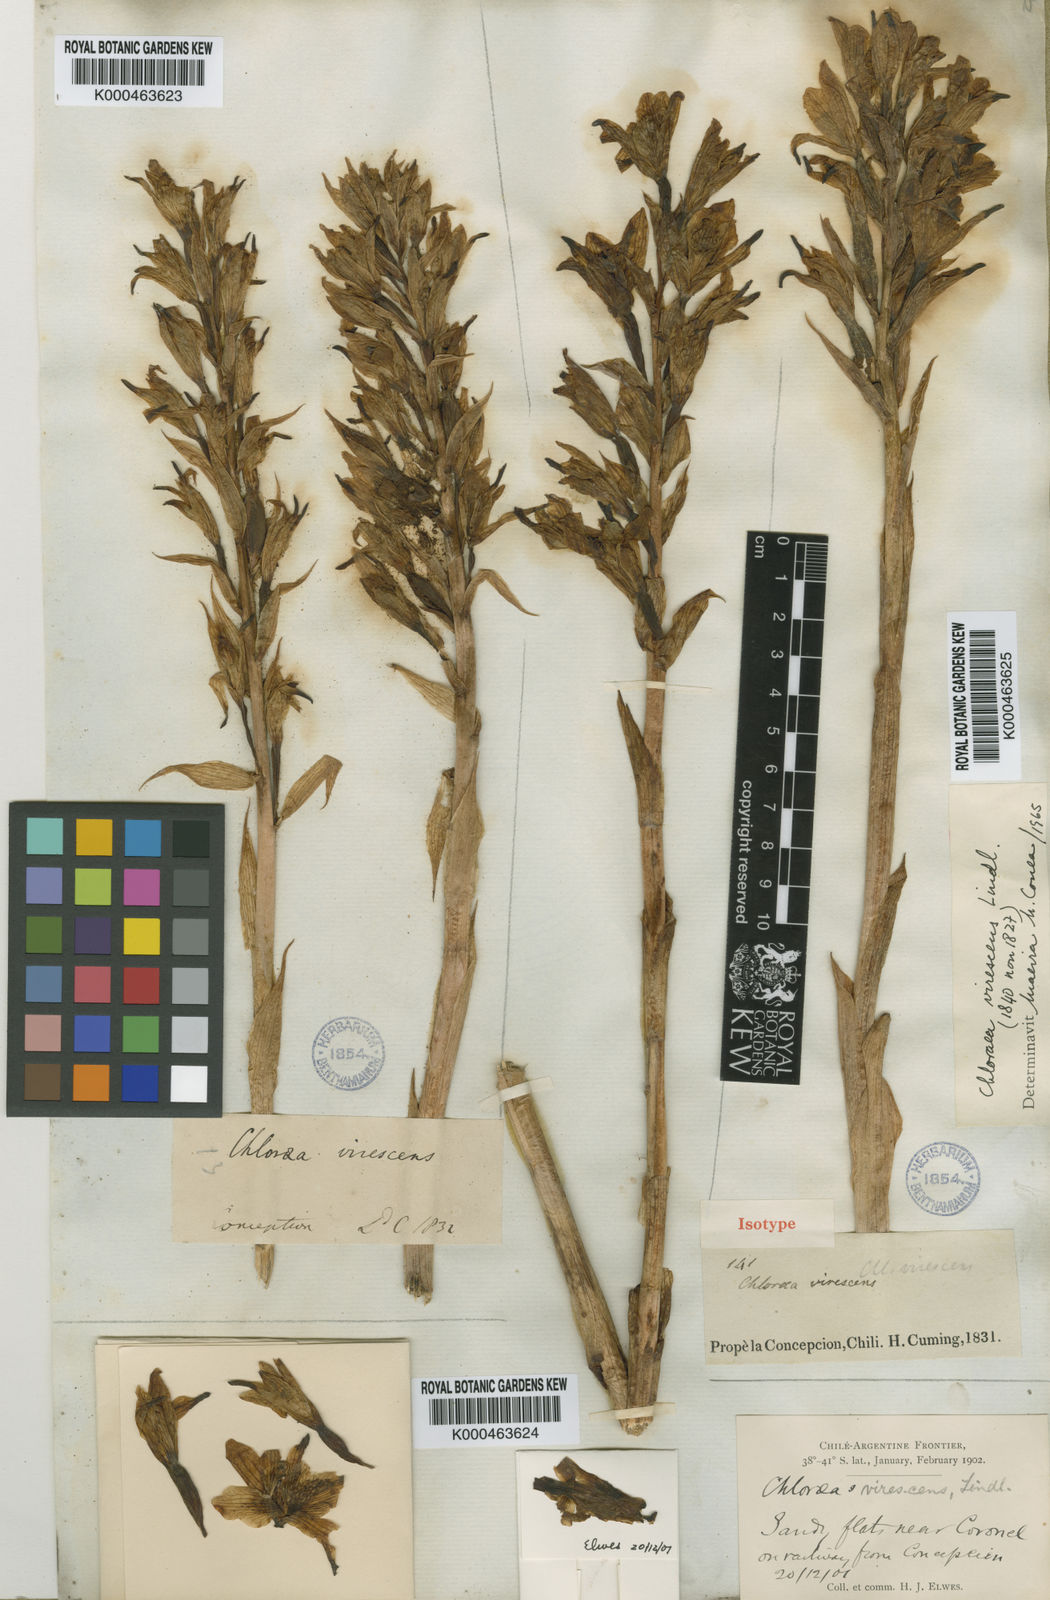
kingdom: Plantae
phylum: Tracheophyta
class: Liliopsida
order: Asparagales
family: Orchidaceae
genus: Chloraea
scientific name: Chloraea piquichen
